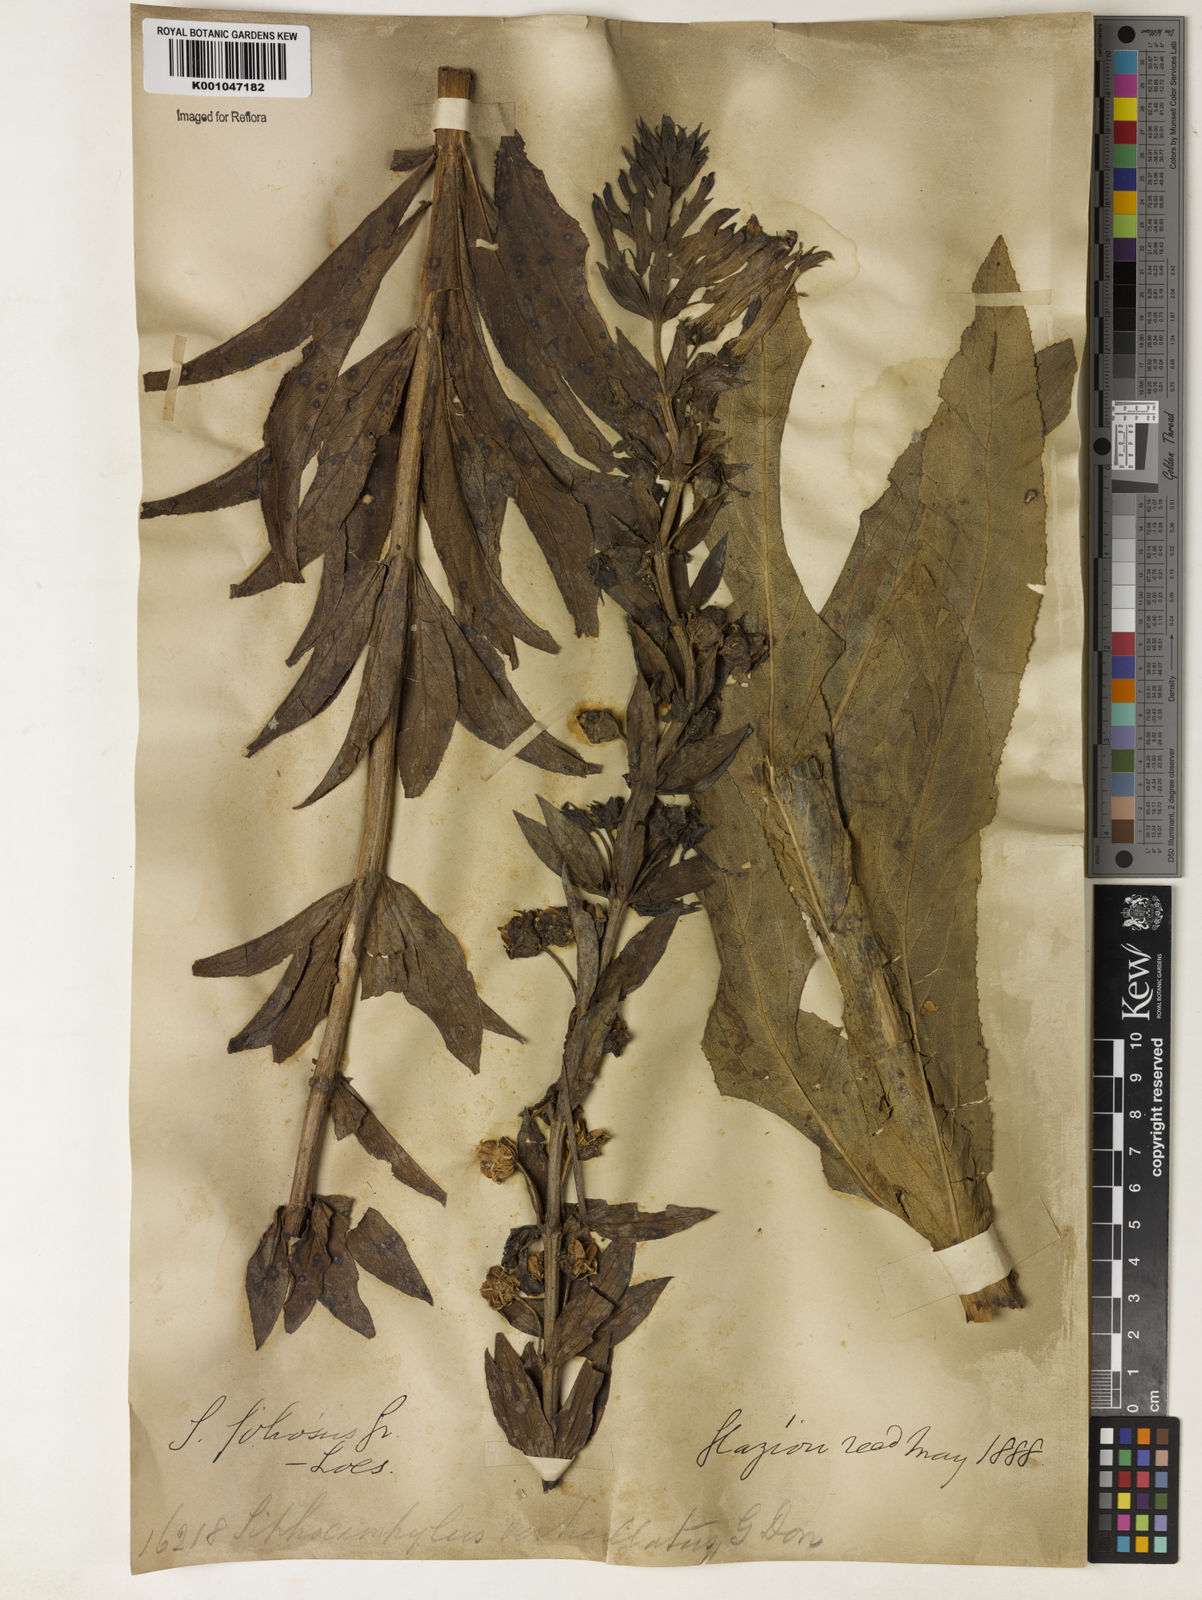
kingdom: Plantae
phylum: Tracheophyta
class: Magnoliopsida
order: Asterales
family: Campanulaceae
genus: Siphocampylus
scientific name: Siphocampylus verticillatus
